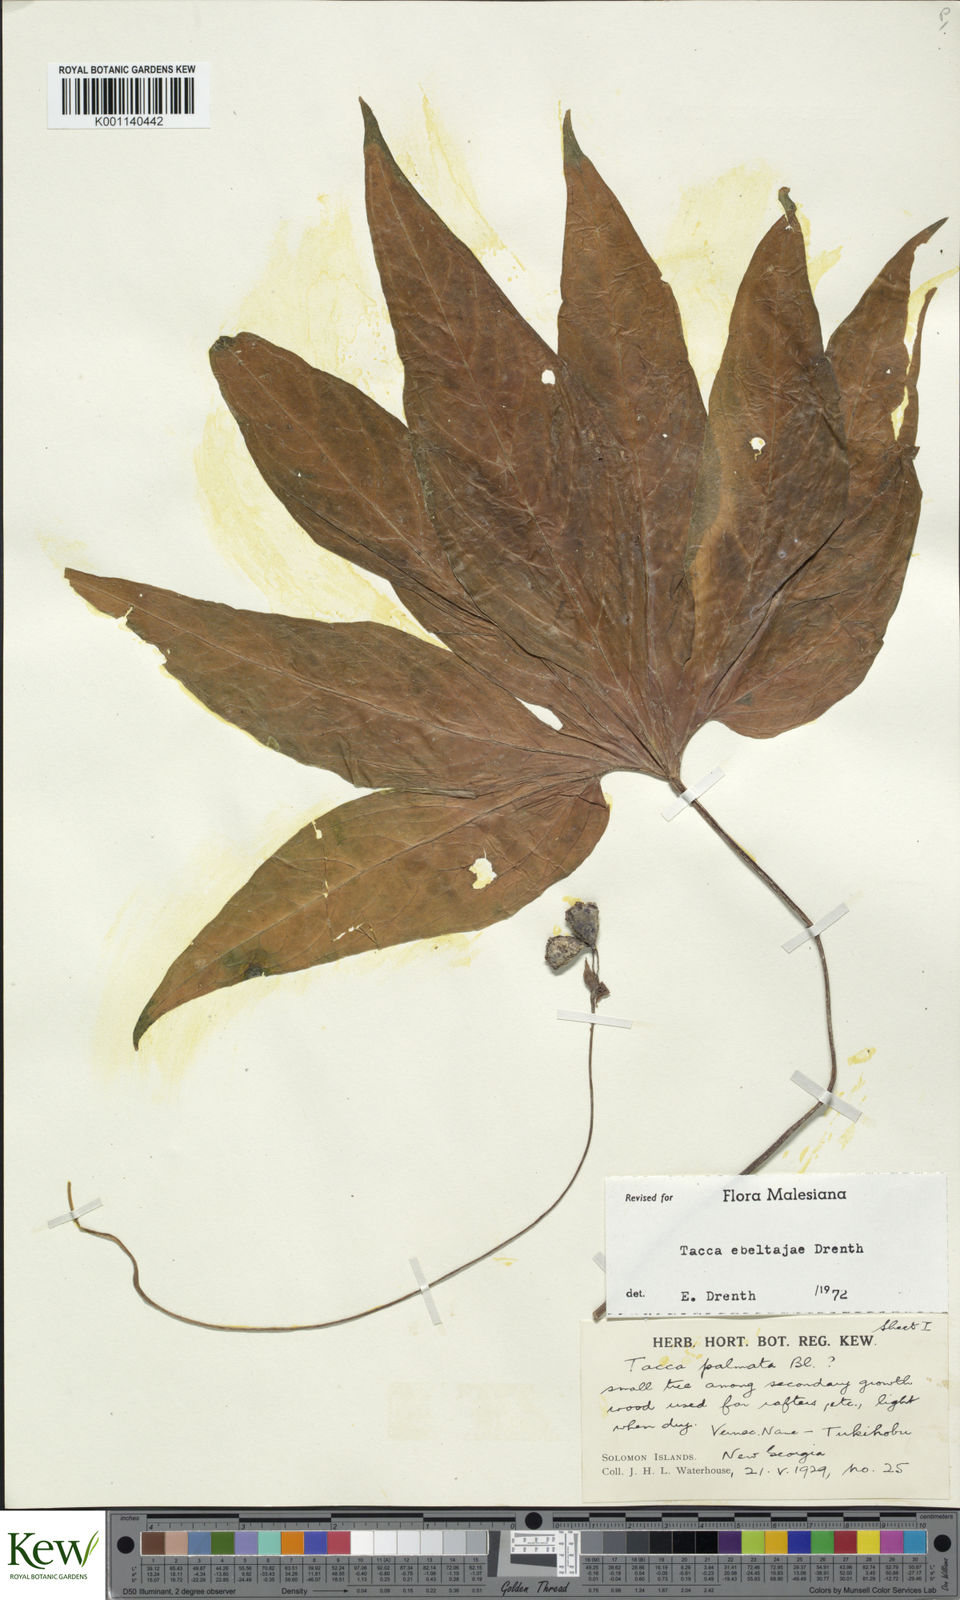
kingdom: Plantae
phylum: Tracheophyta
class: Liliopsida
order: Dioscoreales
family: Dioscoreaceae
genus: Tacca
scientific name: Tacca ebeltajae
